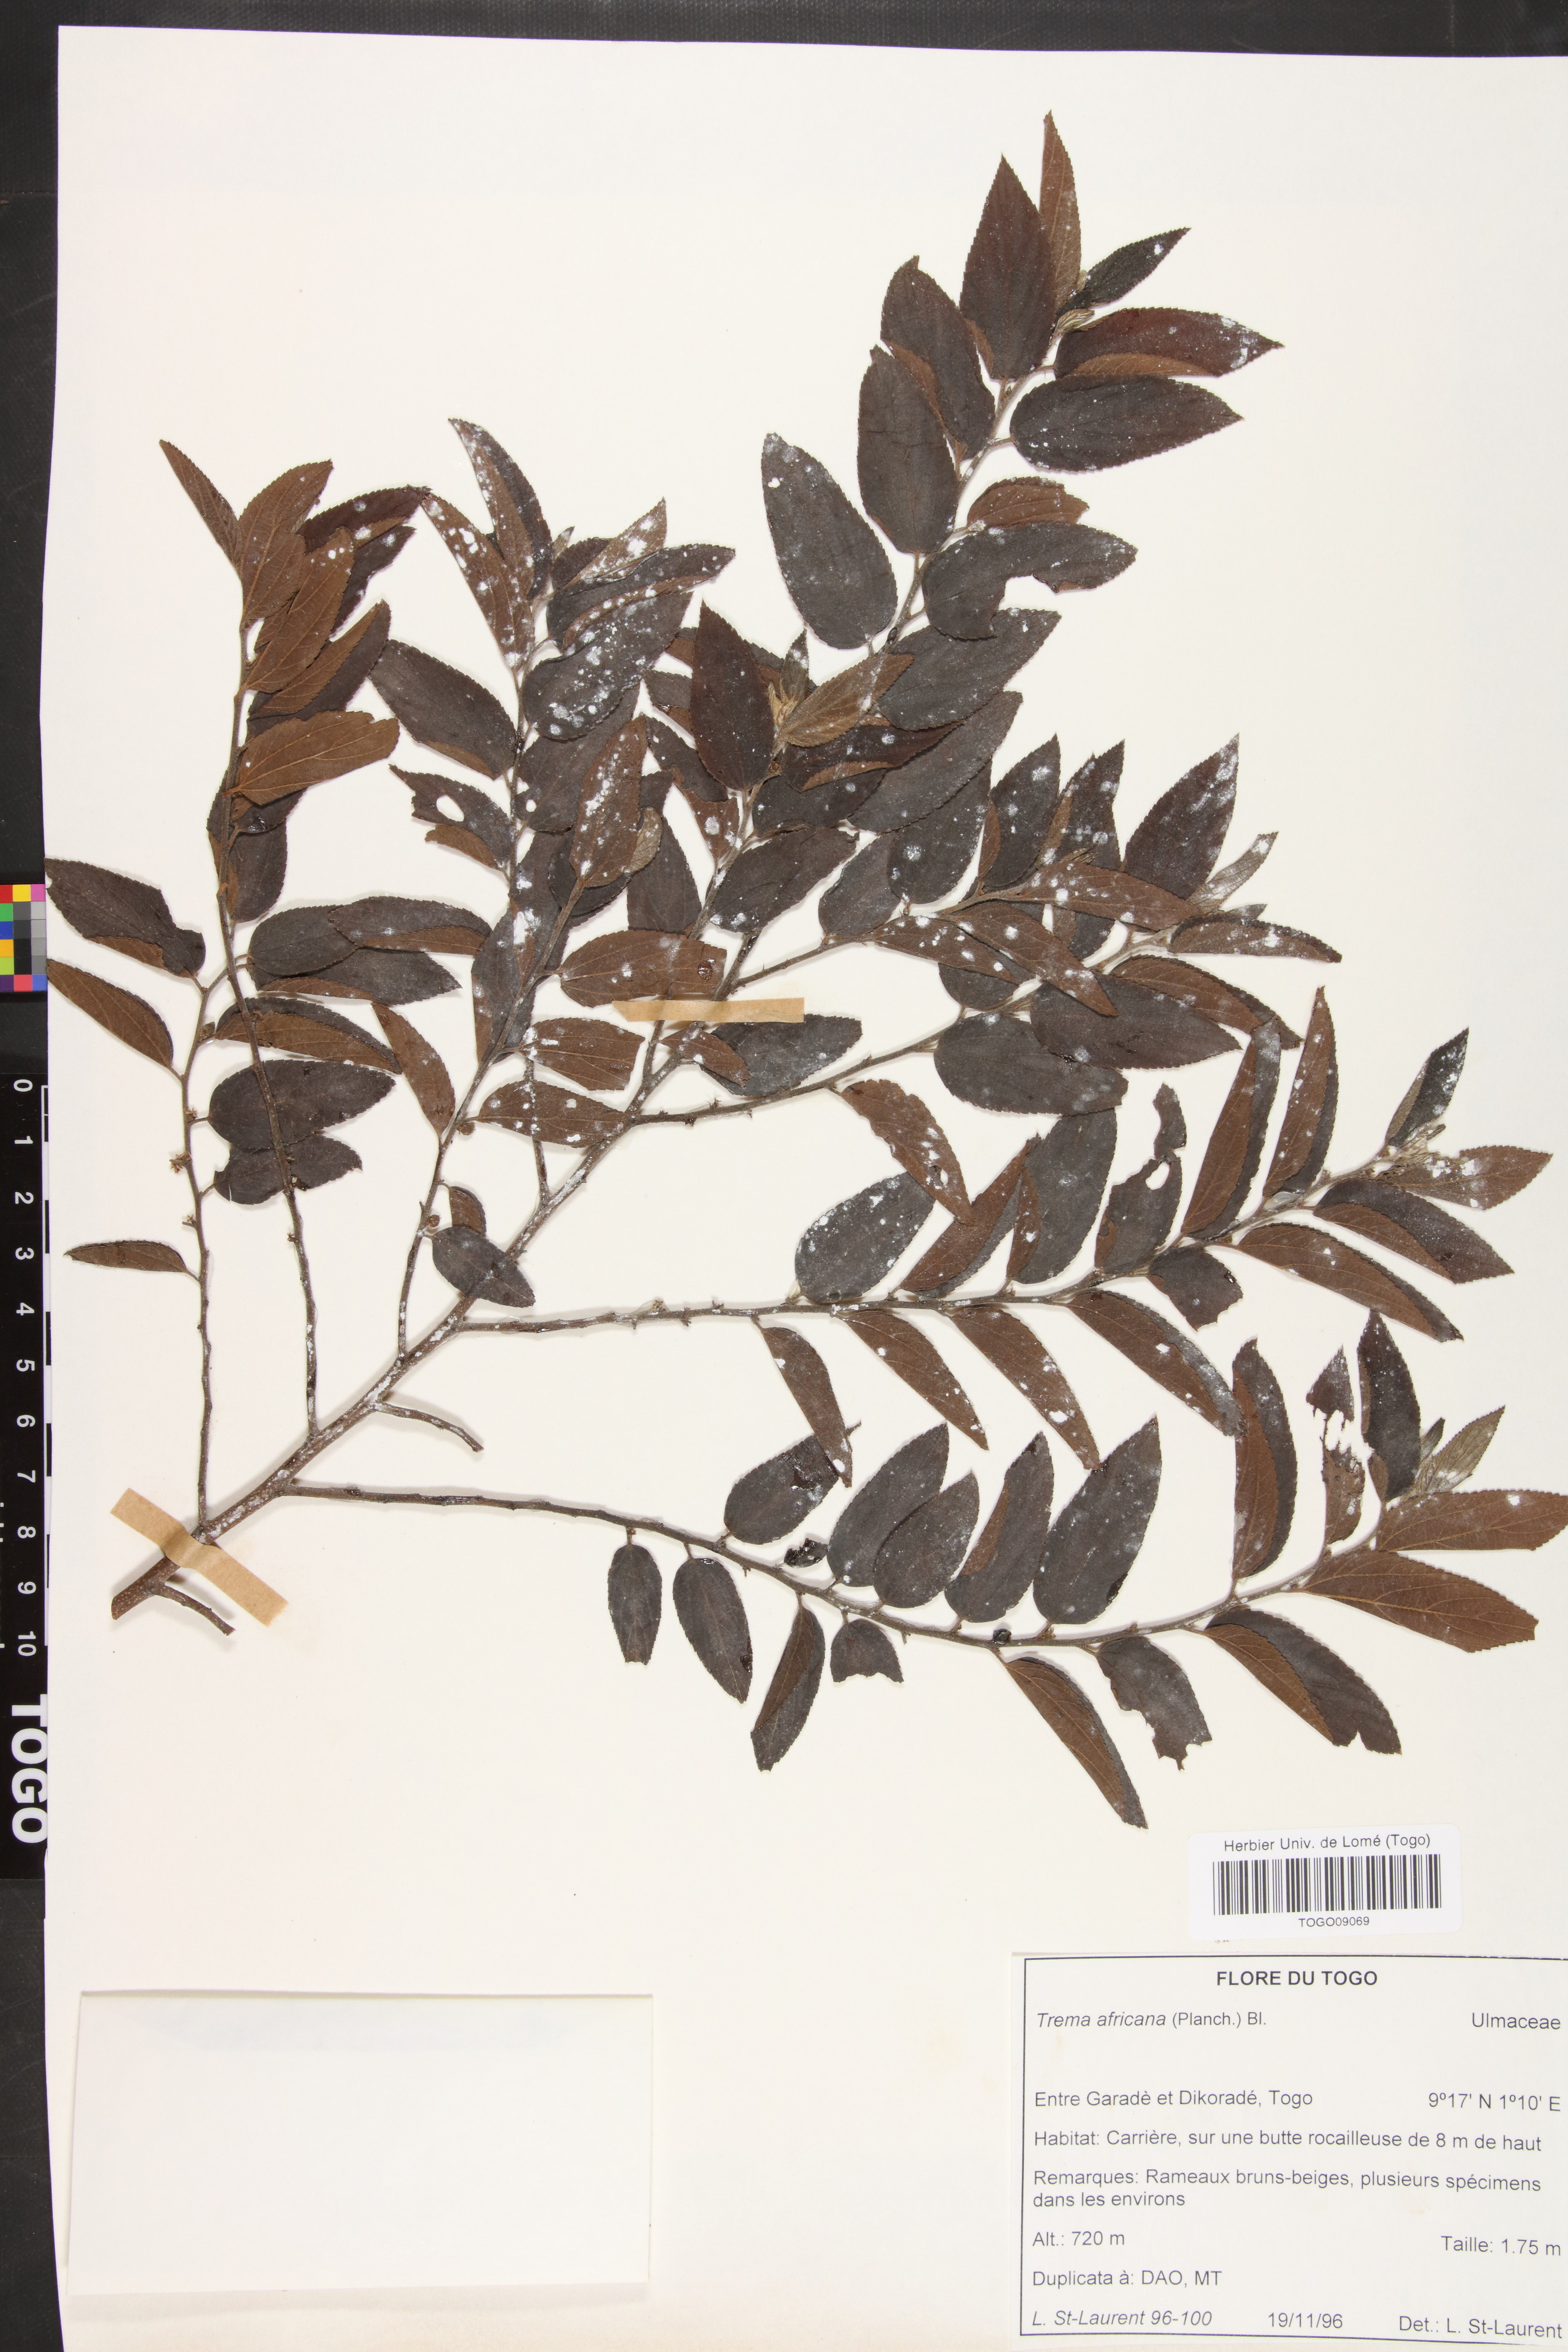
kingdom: Plantae
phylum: Tracheophyta
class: Magnoliopsida
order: Rosales
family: Cannabaceae
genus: Trema
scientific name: Trema orientale
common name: Indian charcoal tree
